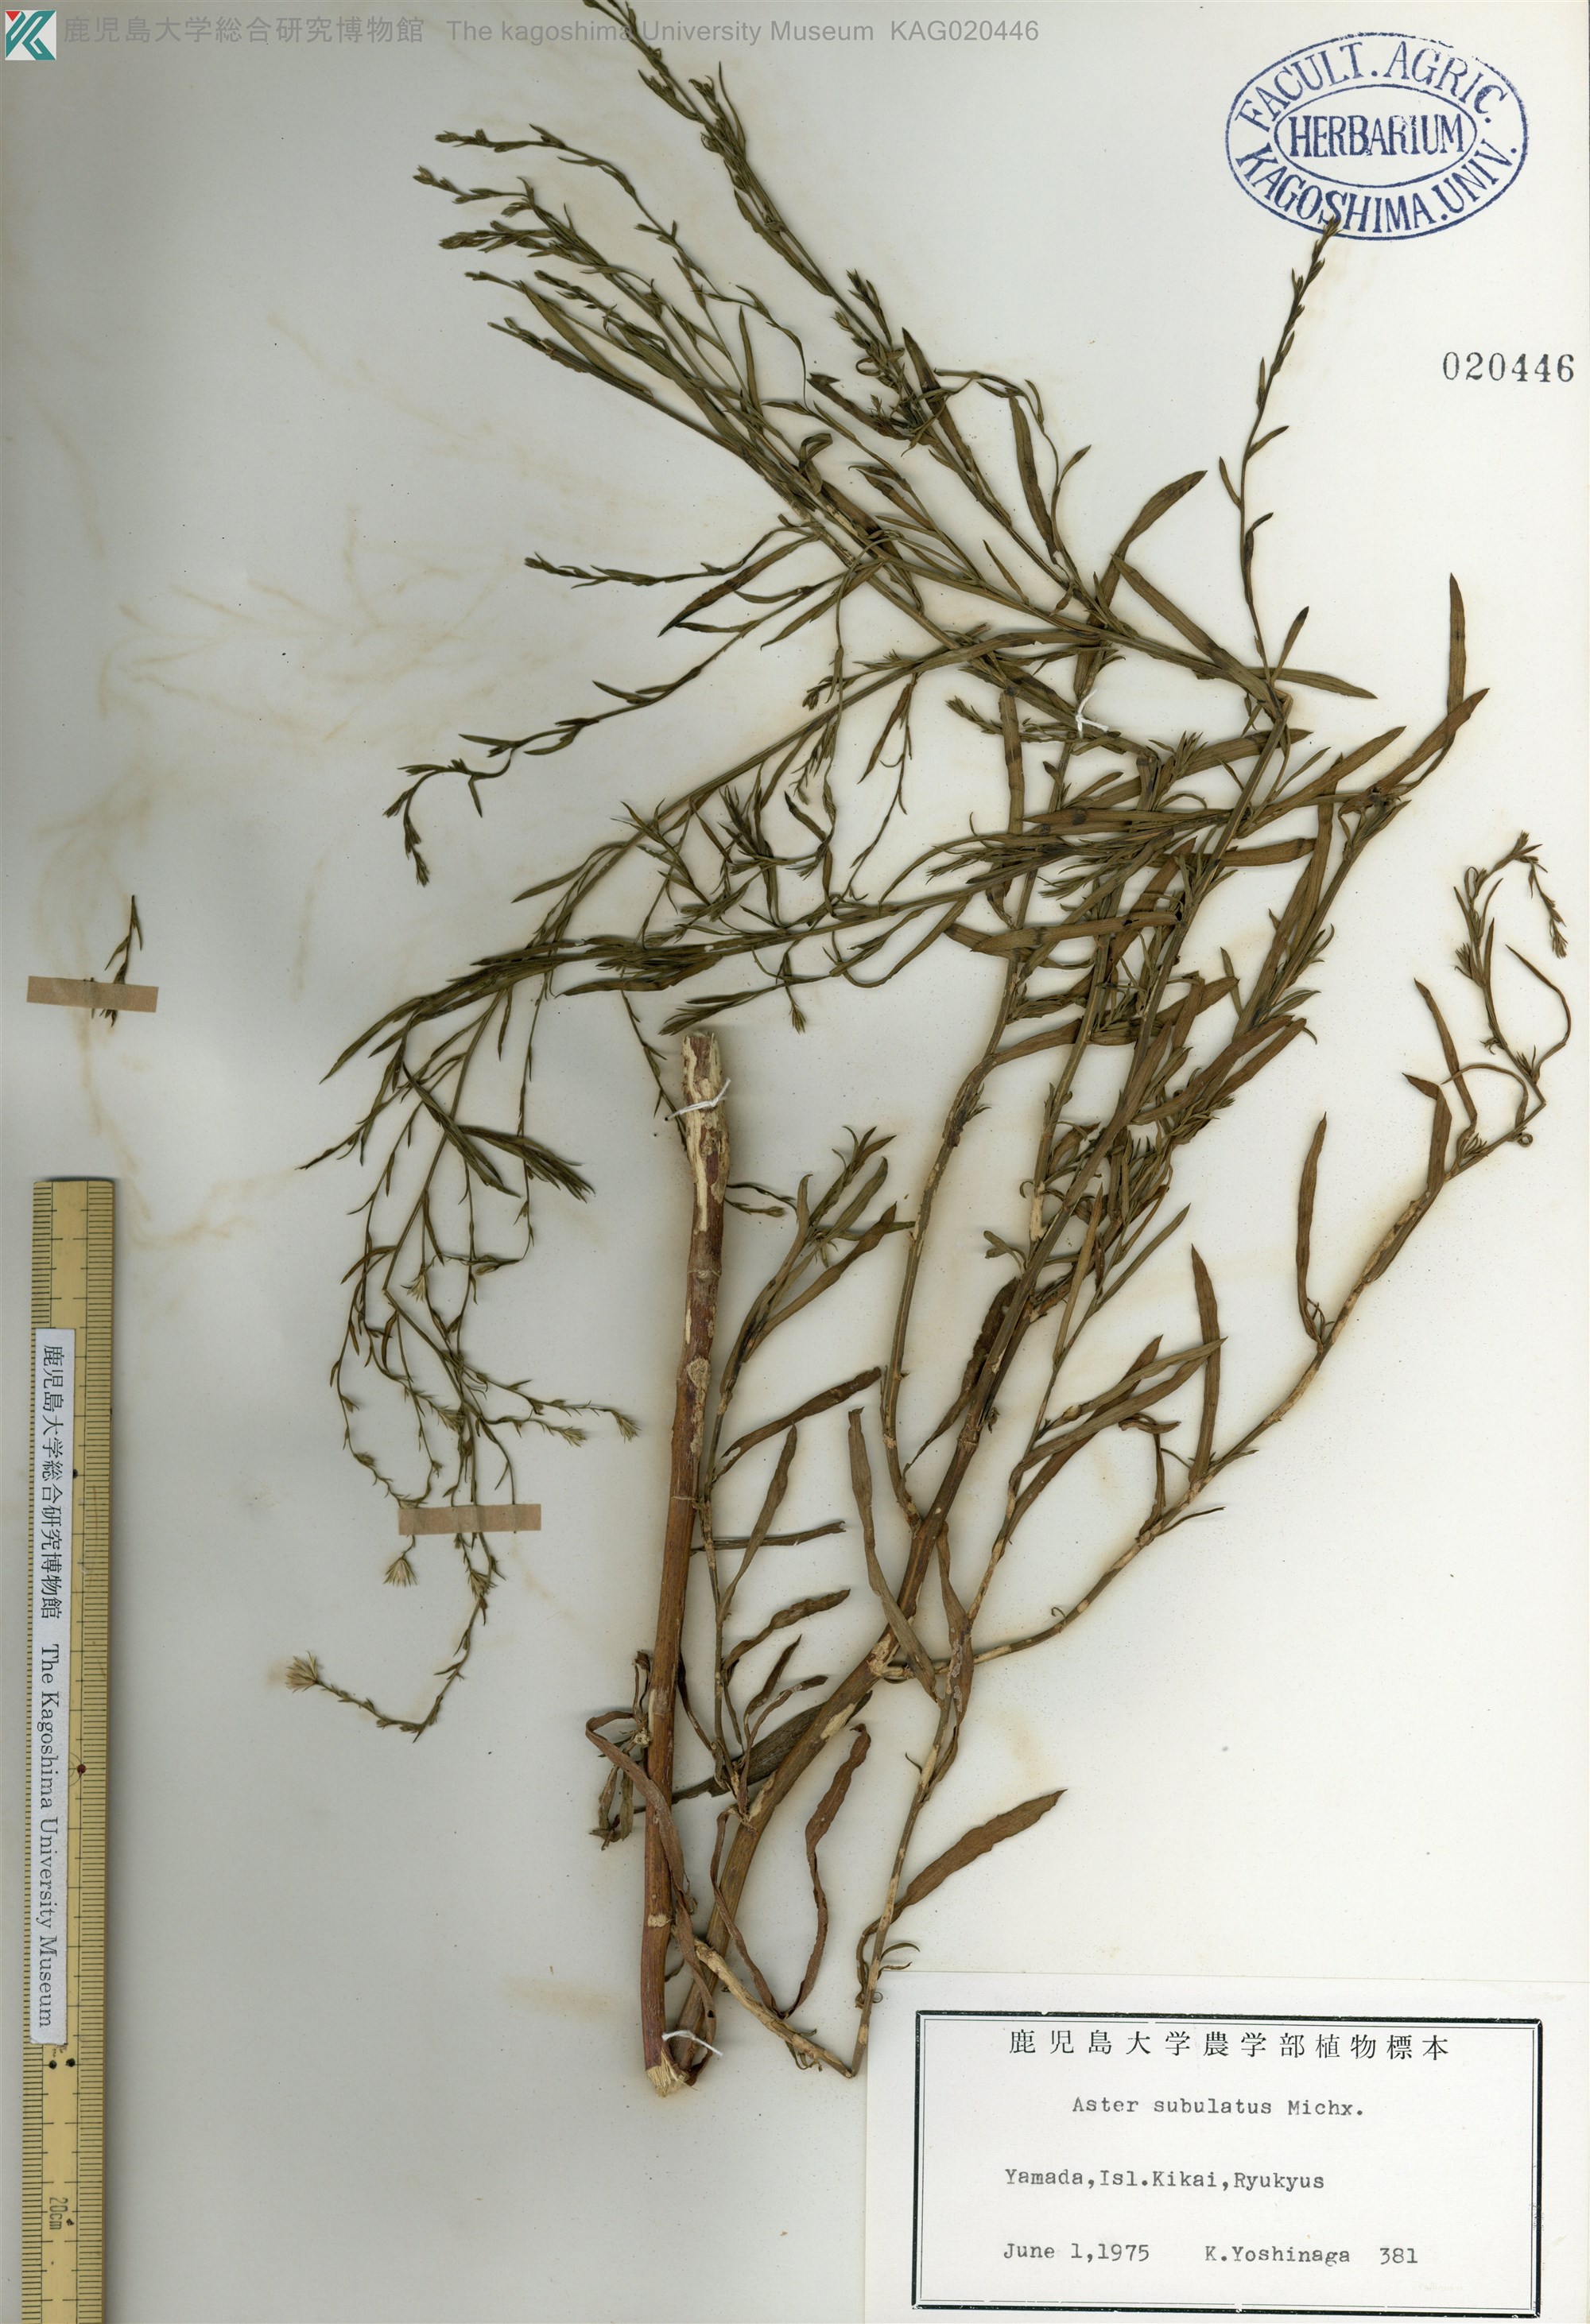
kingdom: Plantae
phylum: Tracheophyta
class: Magnoliopsida
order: Asterales
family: Asteraceae
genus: Symphyotrichum
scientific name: Symphyotrichum subulatum
